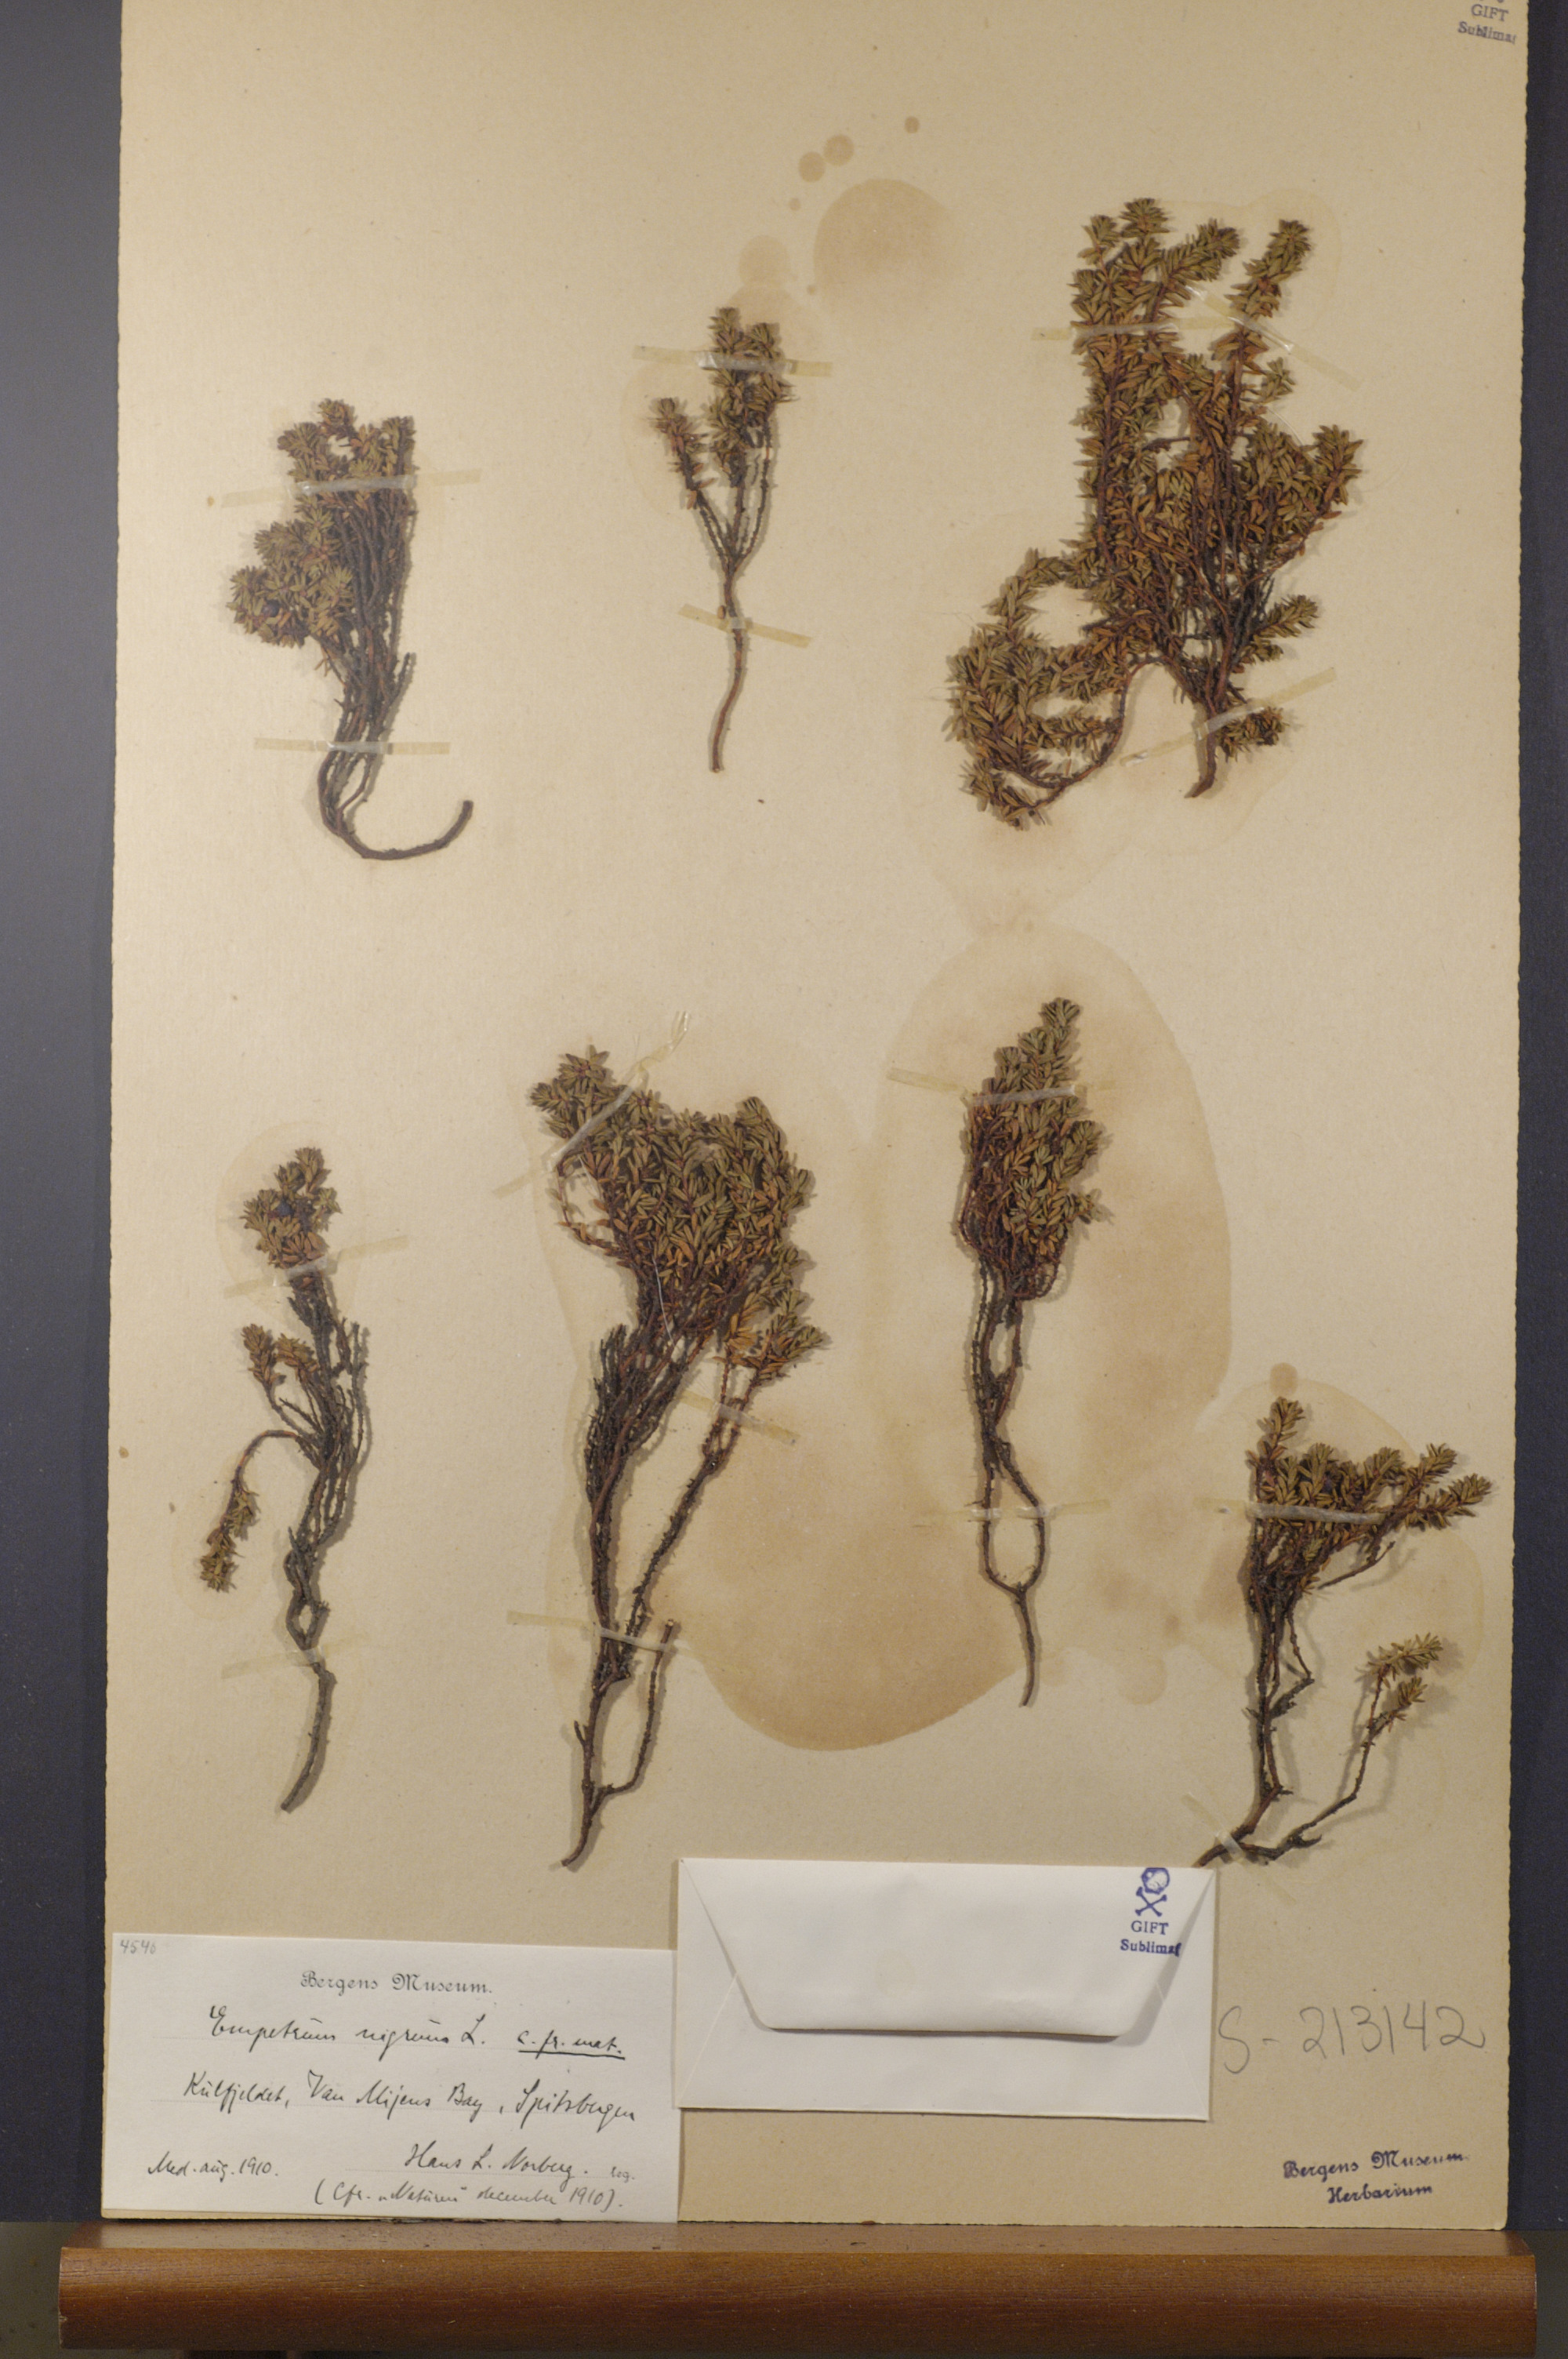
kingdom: Plantae
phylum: Tracheophyta
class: Magnoliopsida
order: Ericales
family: Ericaceae
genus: Empetrum
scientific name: Empetrum nigrum
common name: Black crowberry
